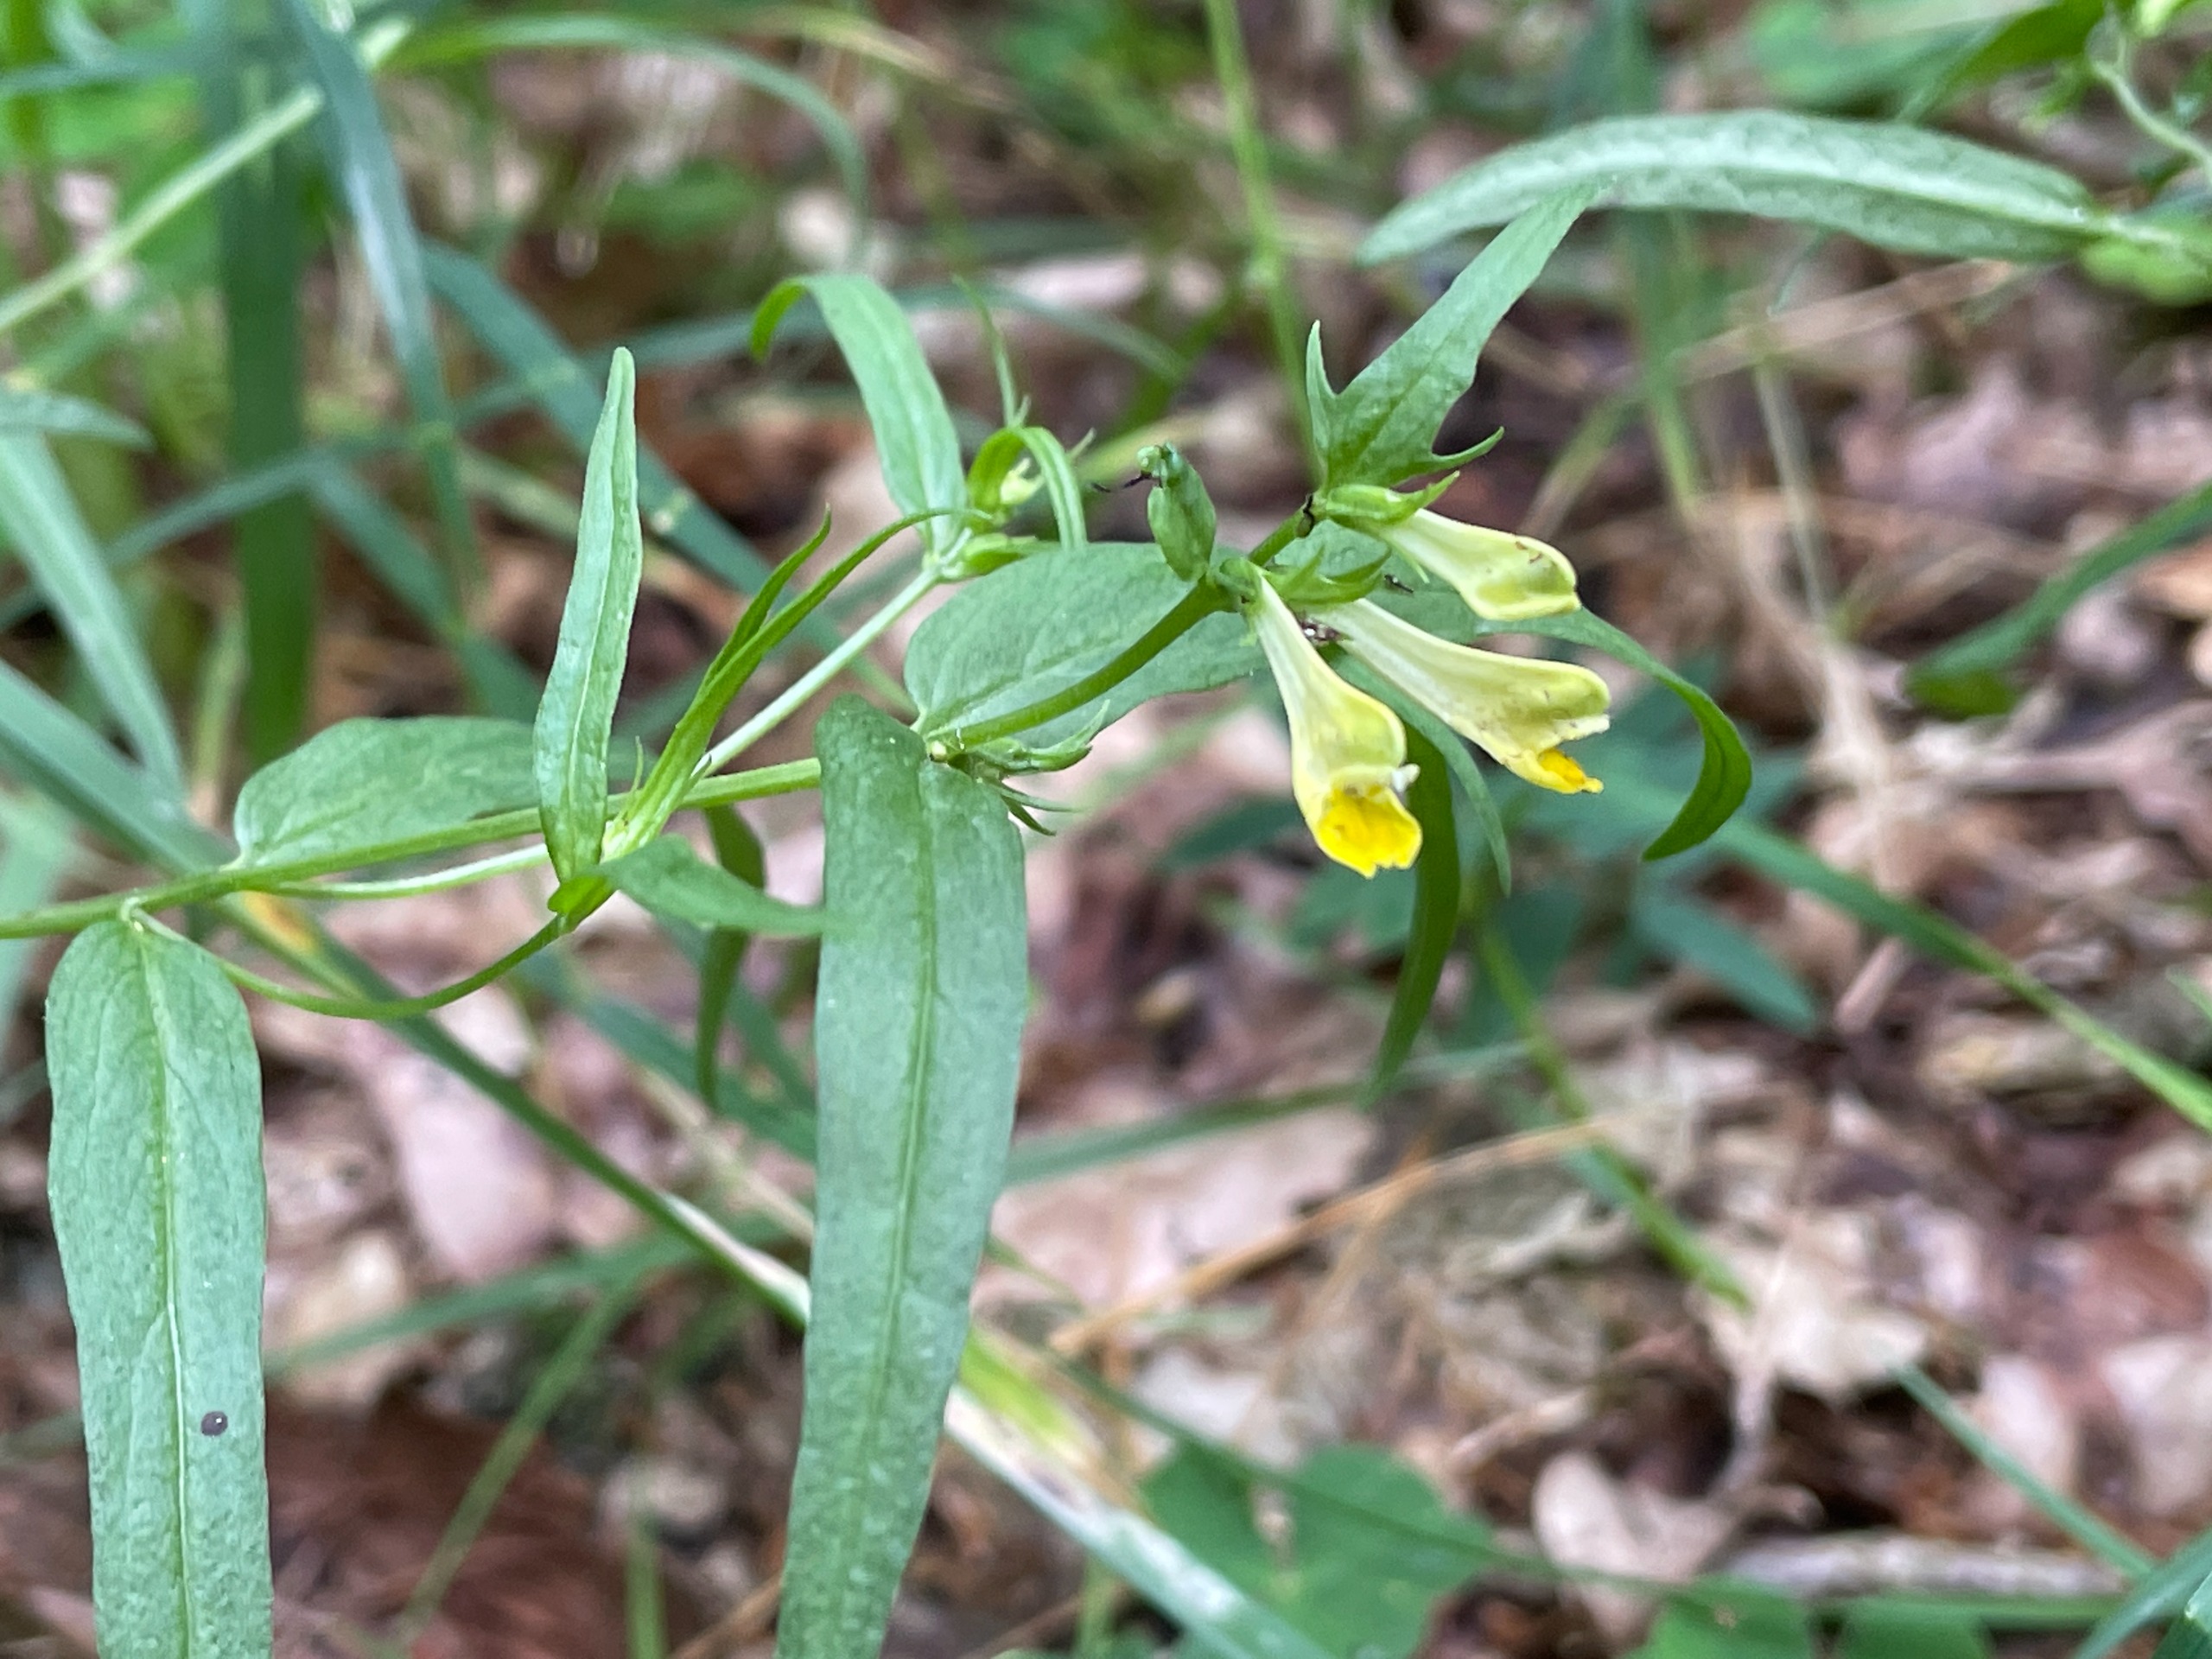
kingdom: Plantae
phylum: Tracheophyta
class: Magnoliopsida
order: Lamiales
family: Orobanchaceae
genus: Melampyrum
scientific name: Melampyrum pratense
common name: Almindelig kohvede
